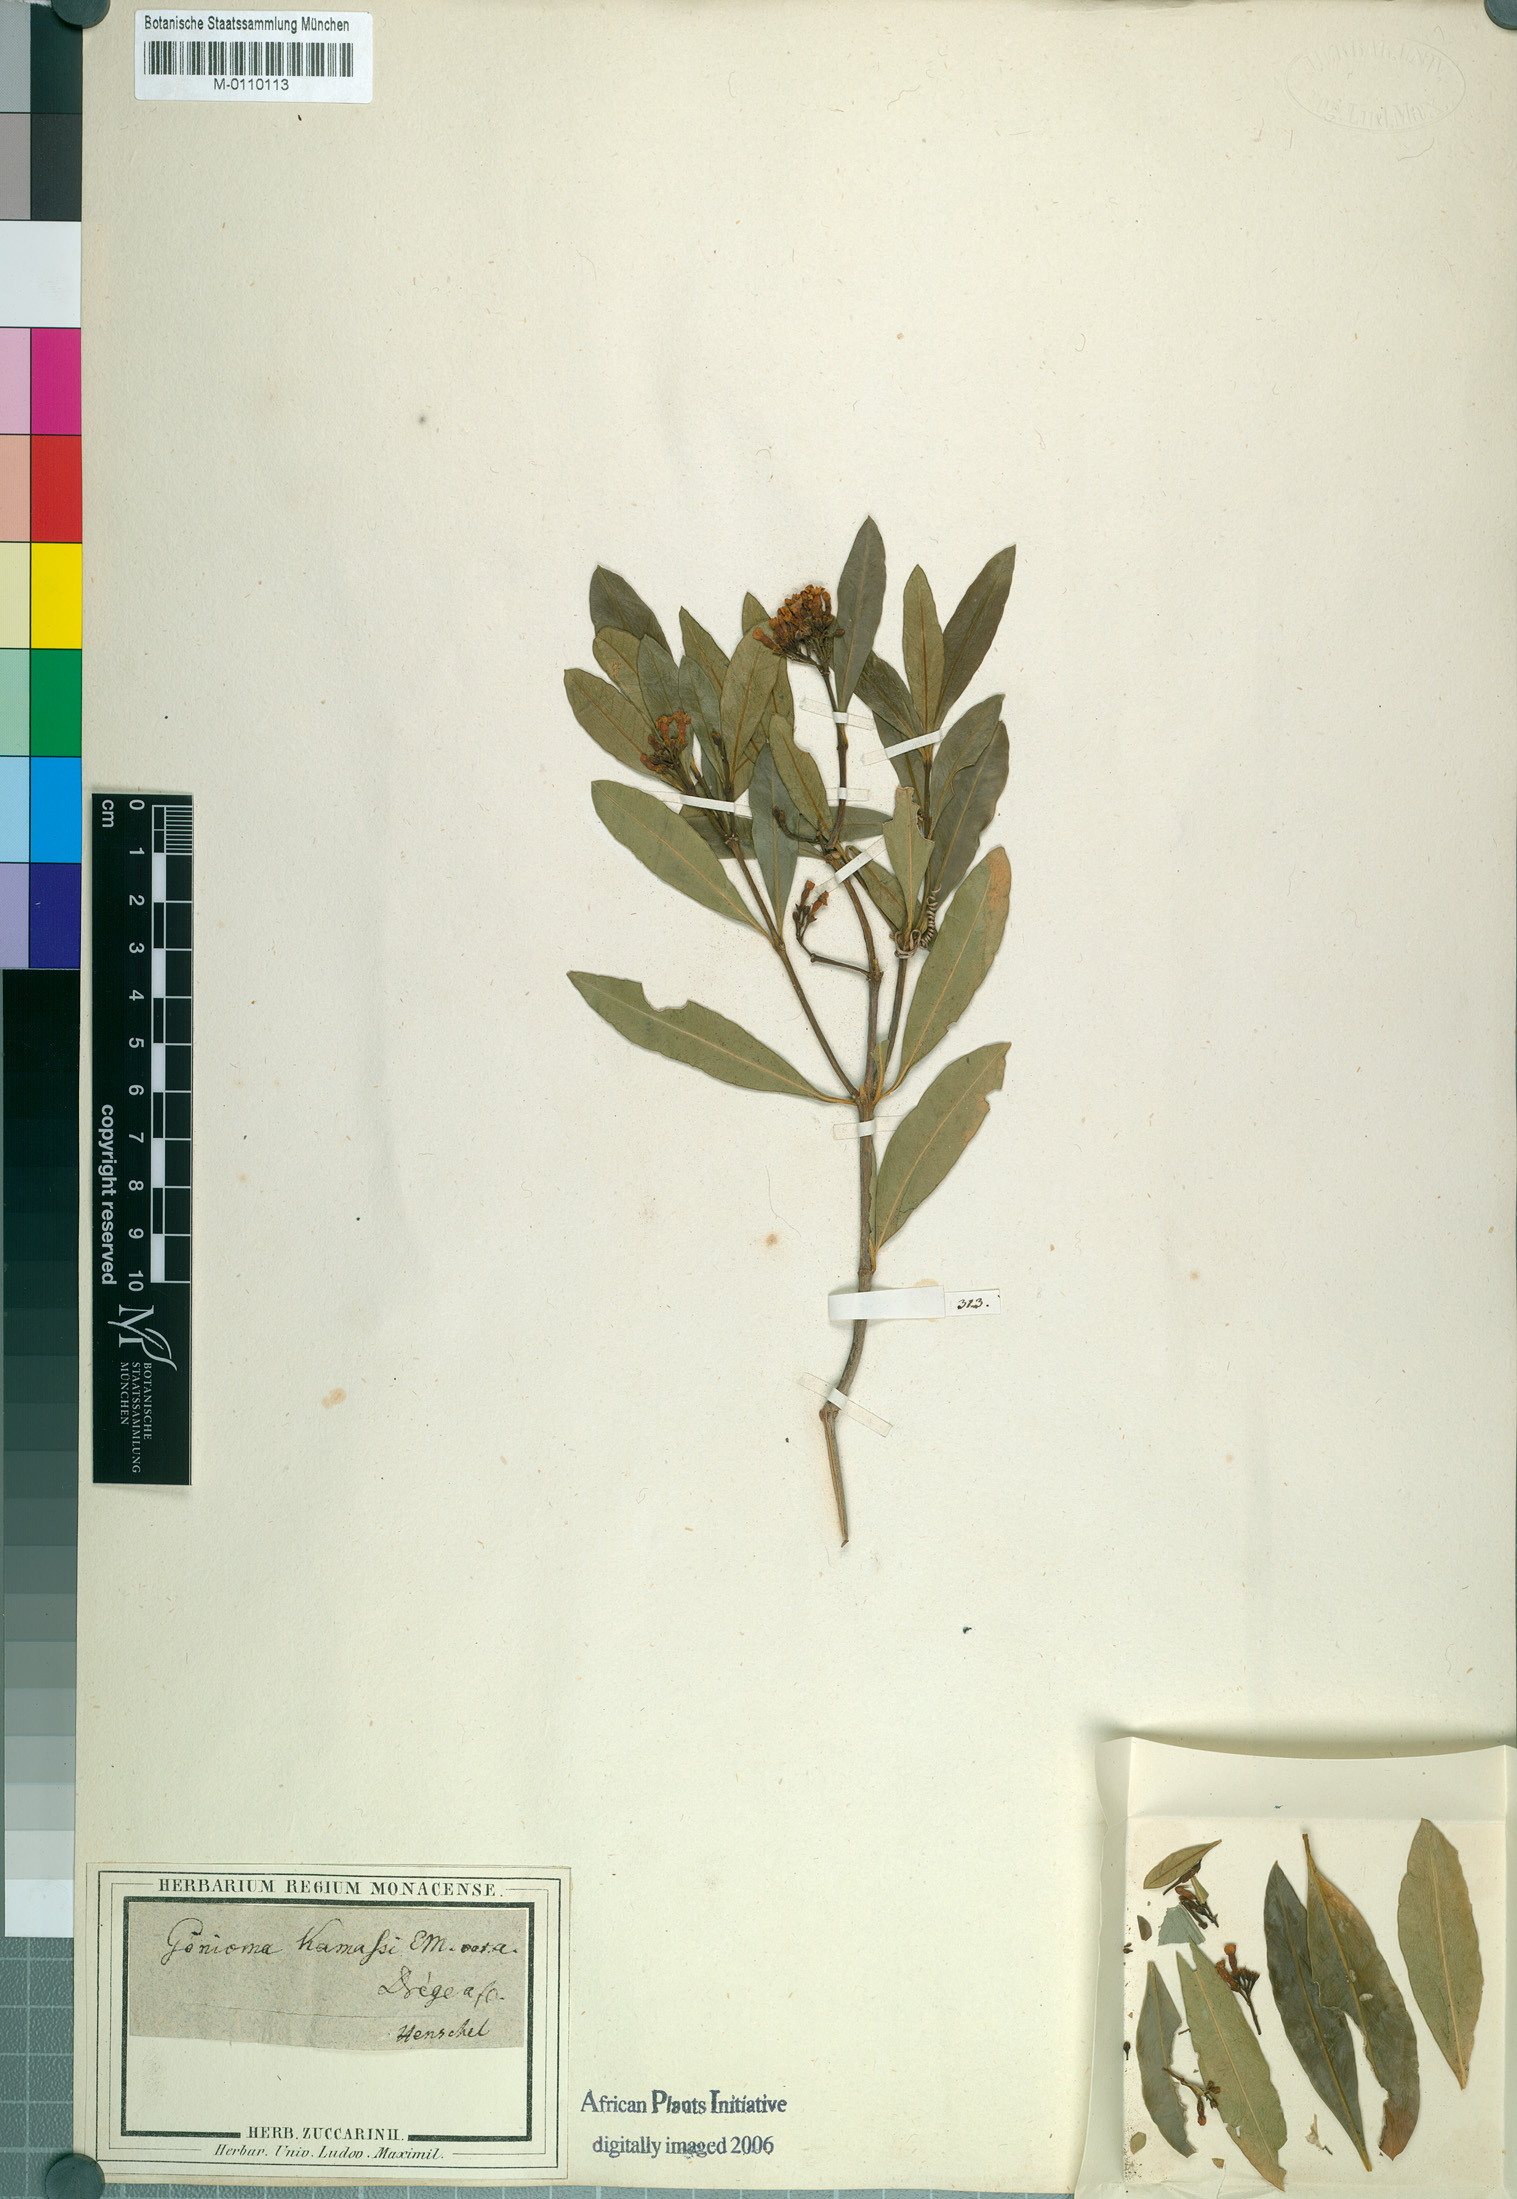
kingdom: Plantae
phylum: Tracheophyta
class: Magnoliopsida
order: Gentianales
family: Apocynaceae
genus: Gonioma
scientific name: Gonioma kamassi
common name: Kamassi
